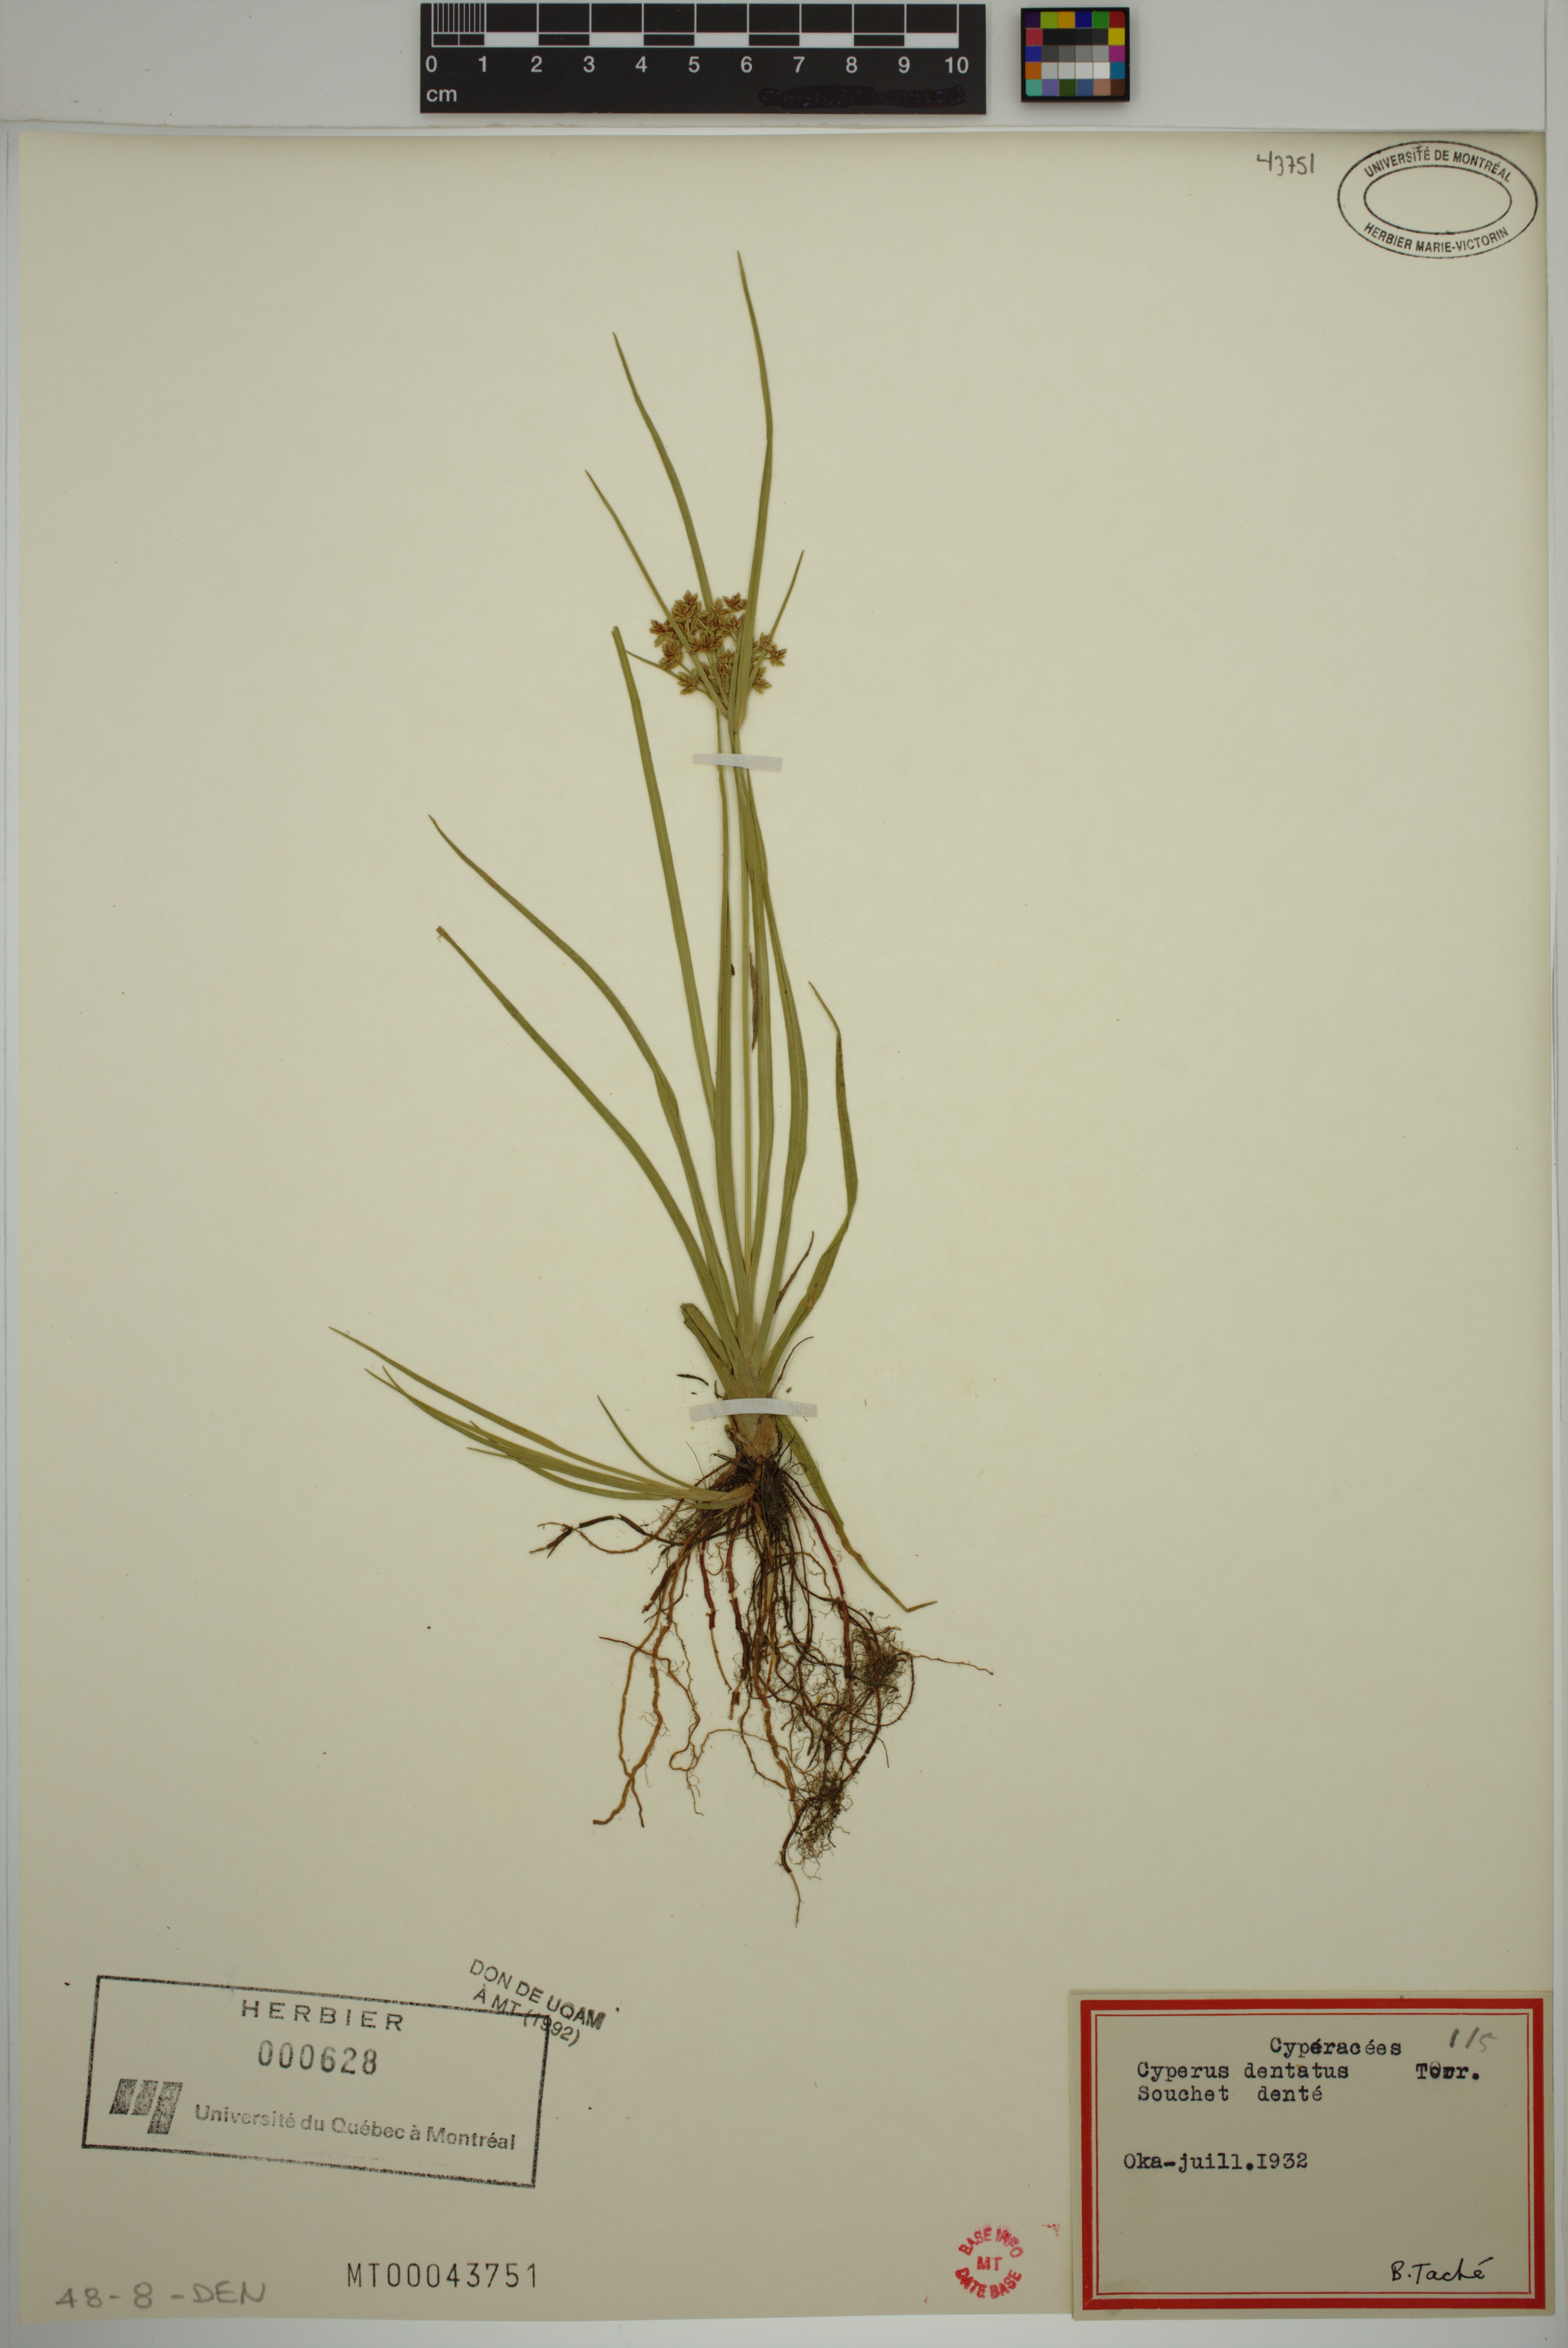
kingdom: Plantae
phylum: Tracheophyta
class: Liliopsida
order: Poales
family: Cyperaceae
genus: Cyperus
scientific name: Cyperus dentatus
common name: Dentate umbrella sedge
